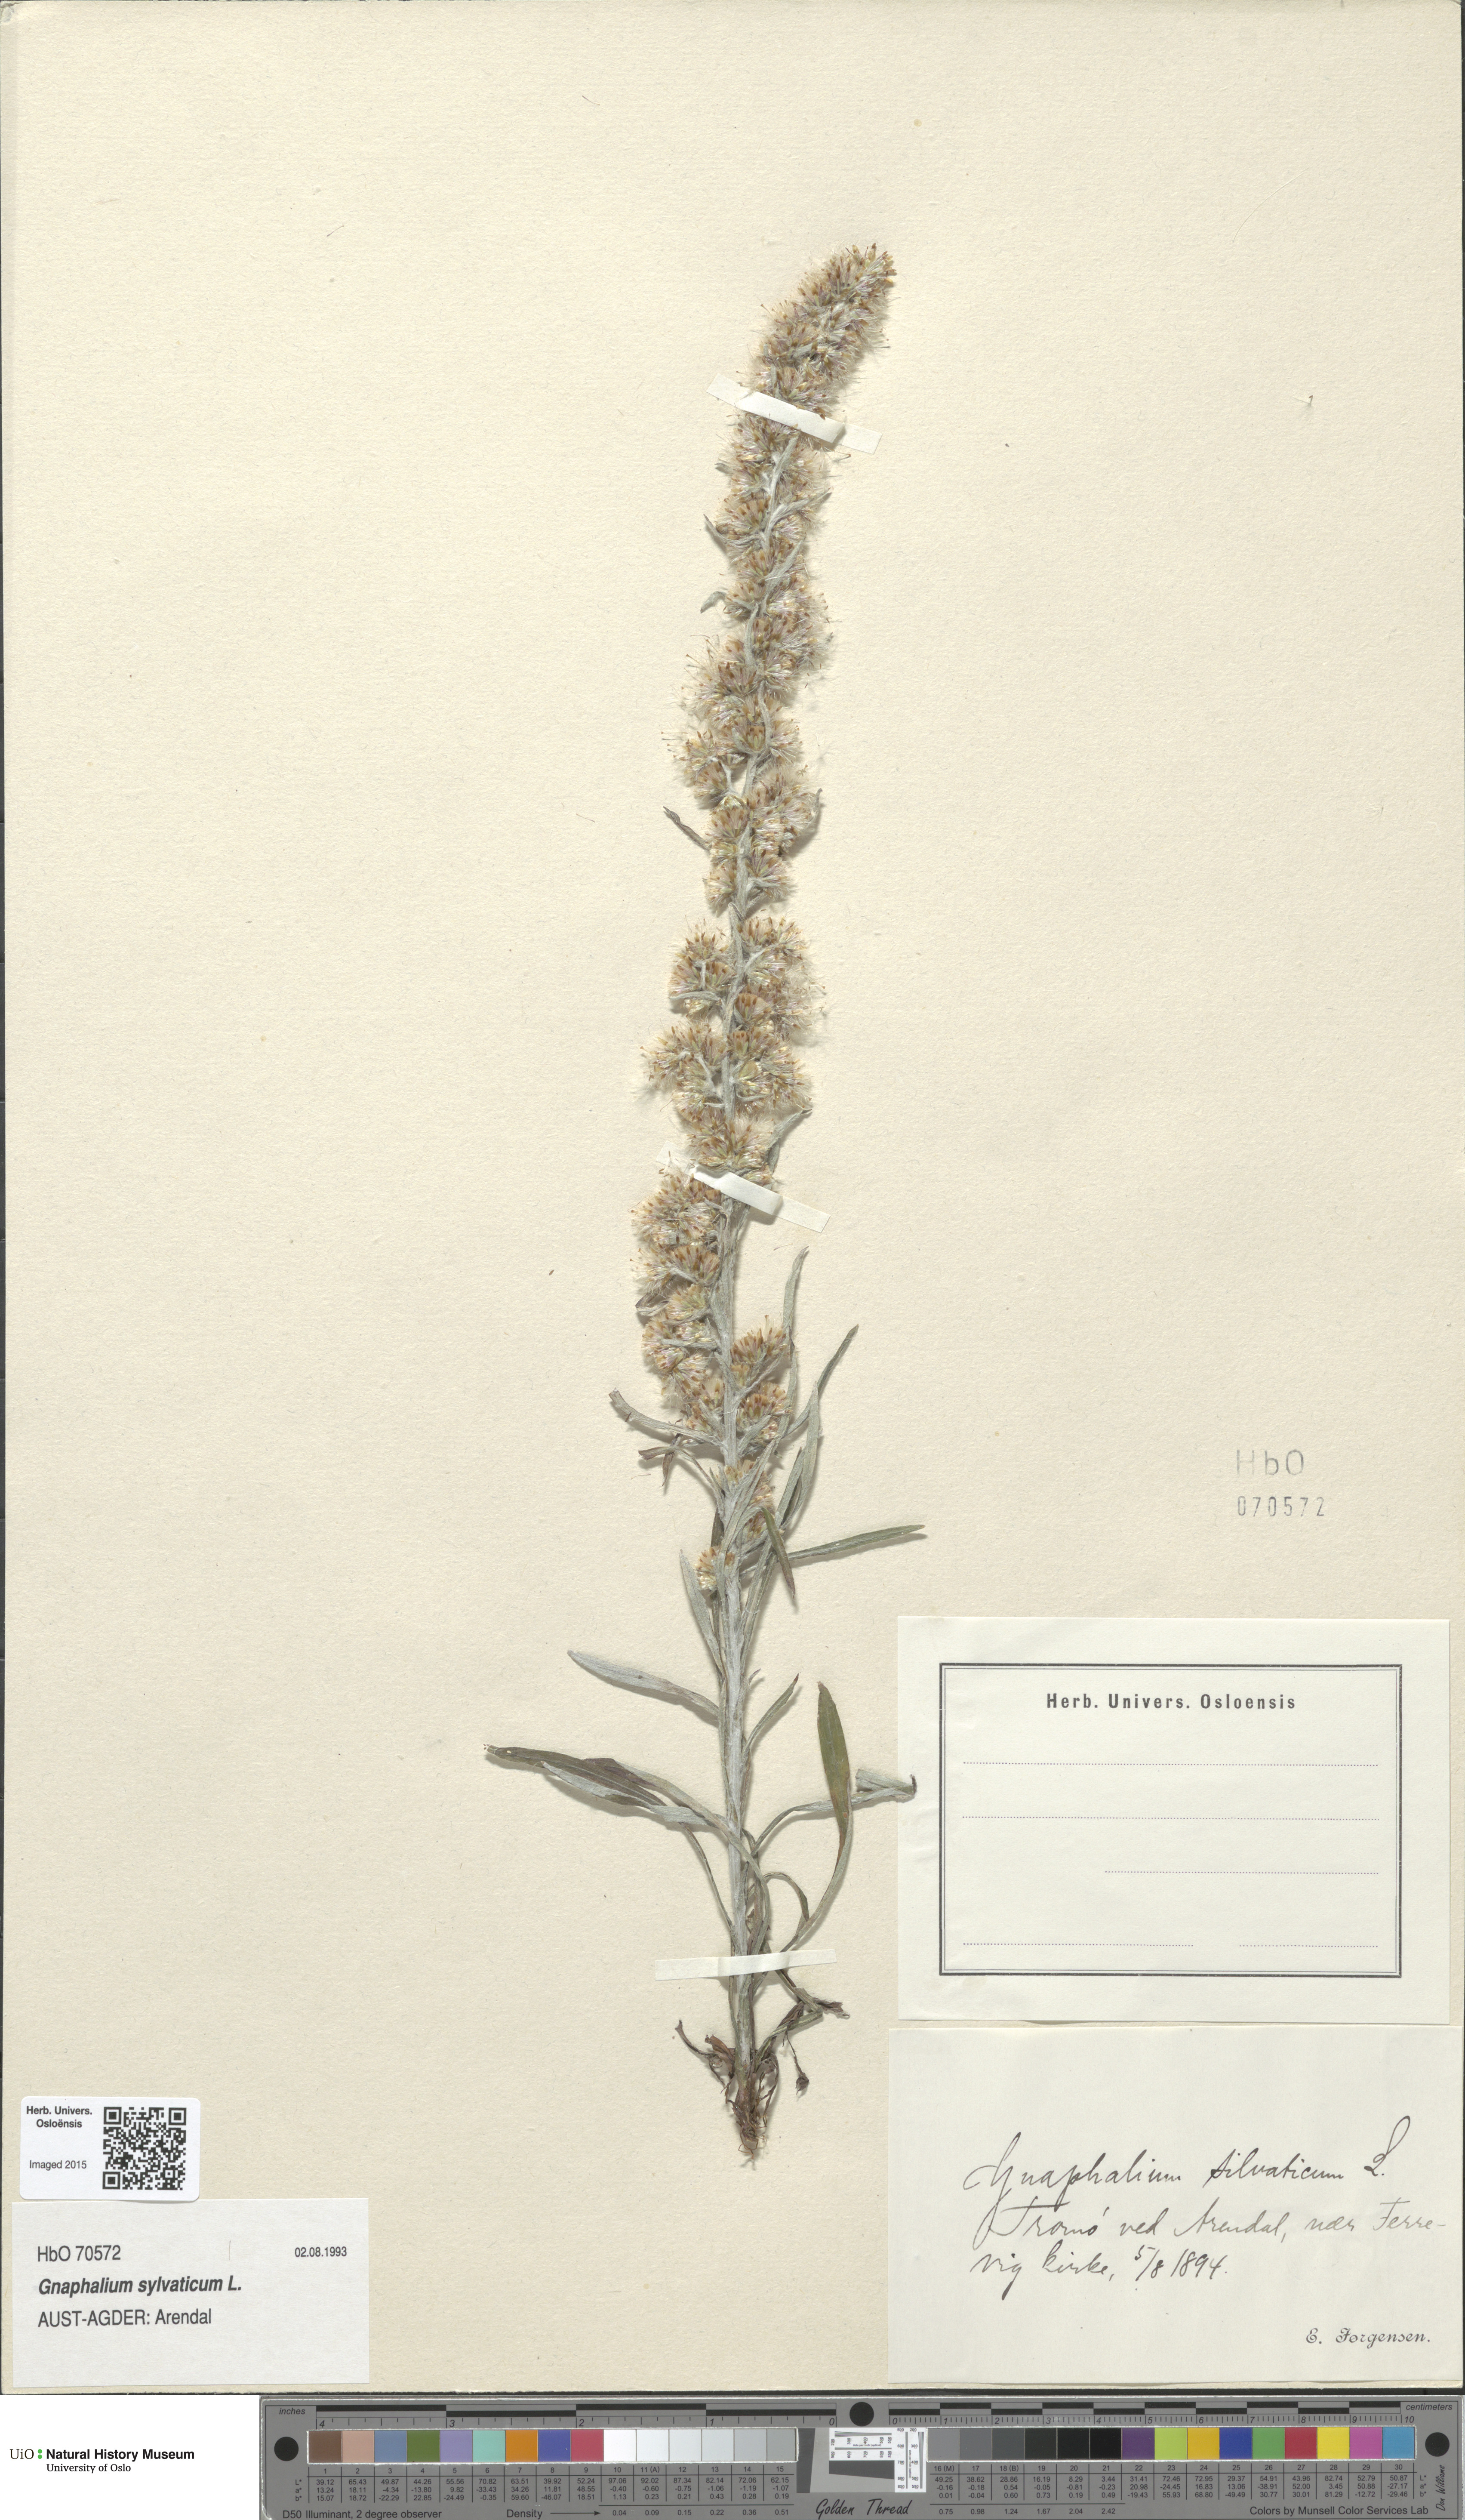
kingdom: Plantae
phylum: Tracheophyta
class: Magnoliopsida
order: Asterales
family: Asteraceae
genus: Omalotheca
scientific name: Omalotheca sylvatica
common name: Heath cudweed
